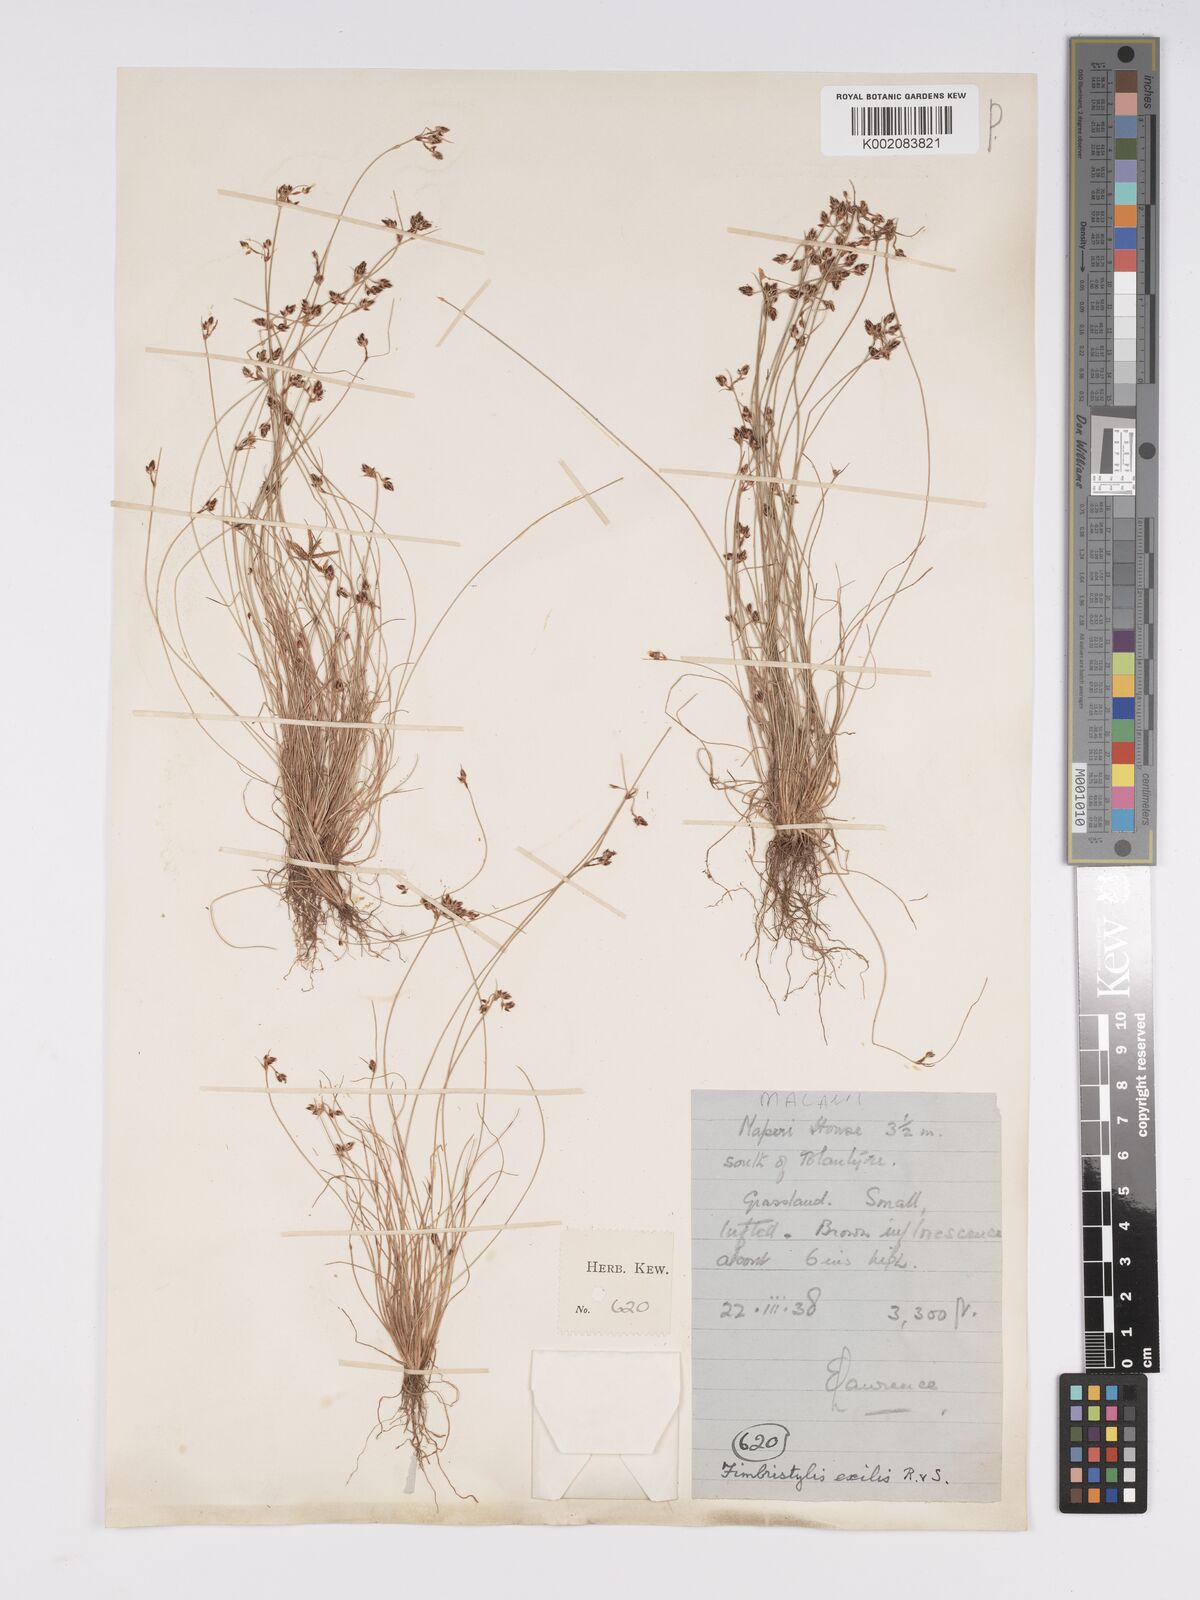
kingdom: Plantae
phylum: Tracheophyta
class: Liliopsida
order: Poales
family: Cyperaceae
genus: Bulbostylis
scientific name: Bulbostylis hispidula
